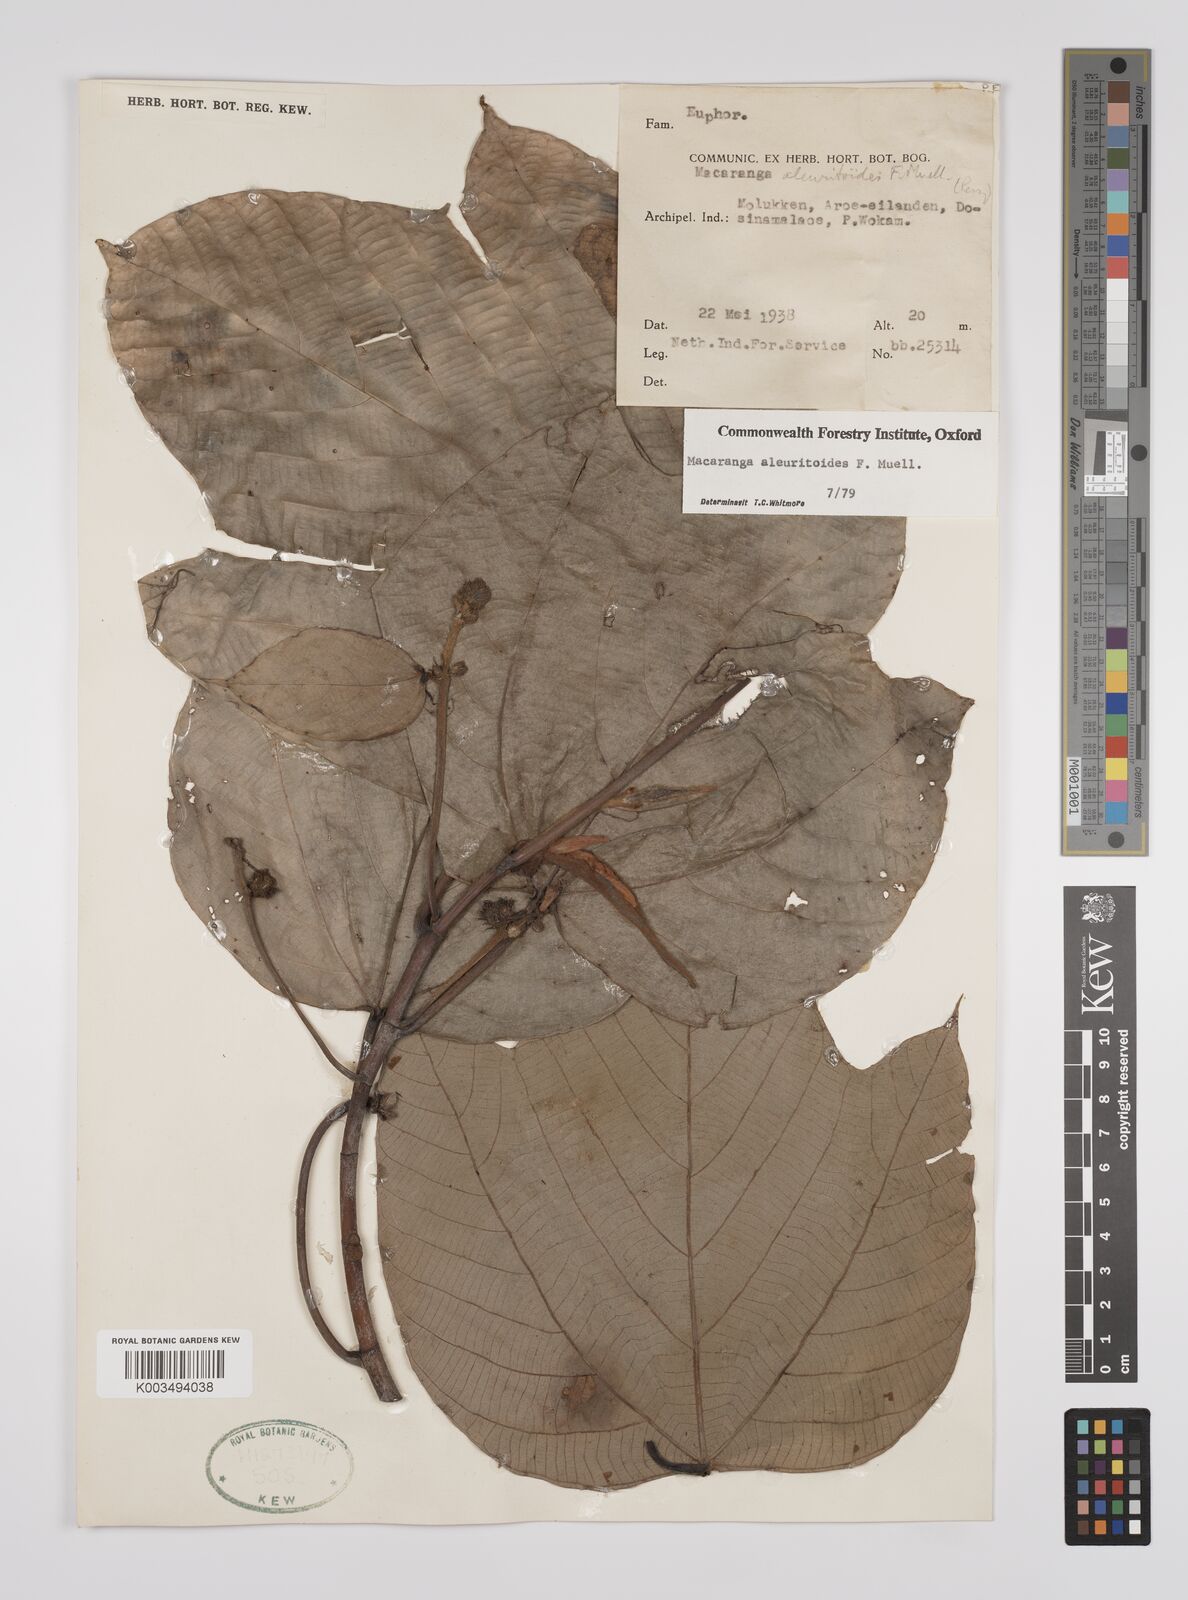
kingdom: Plantae
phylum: Tracheophyta
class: Magnoliopsida
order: Malpighiales
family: Euphorbiaceae
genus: Macaranga
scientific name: Macaranga aleuritoides
